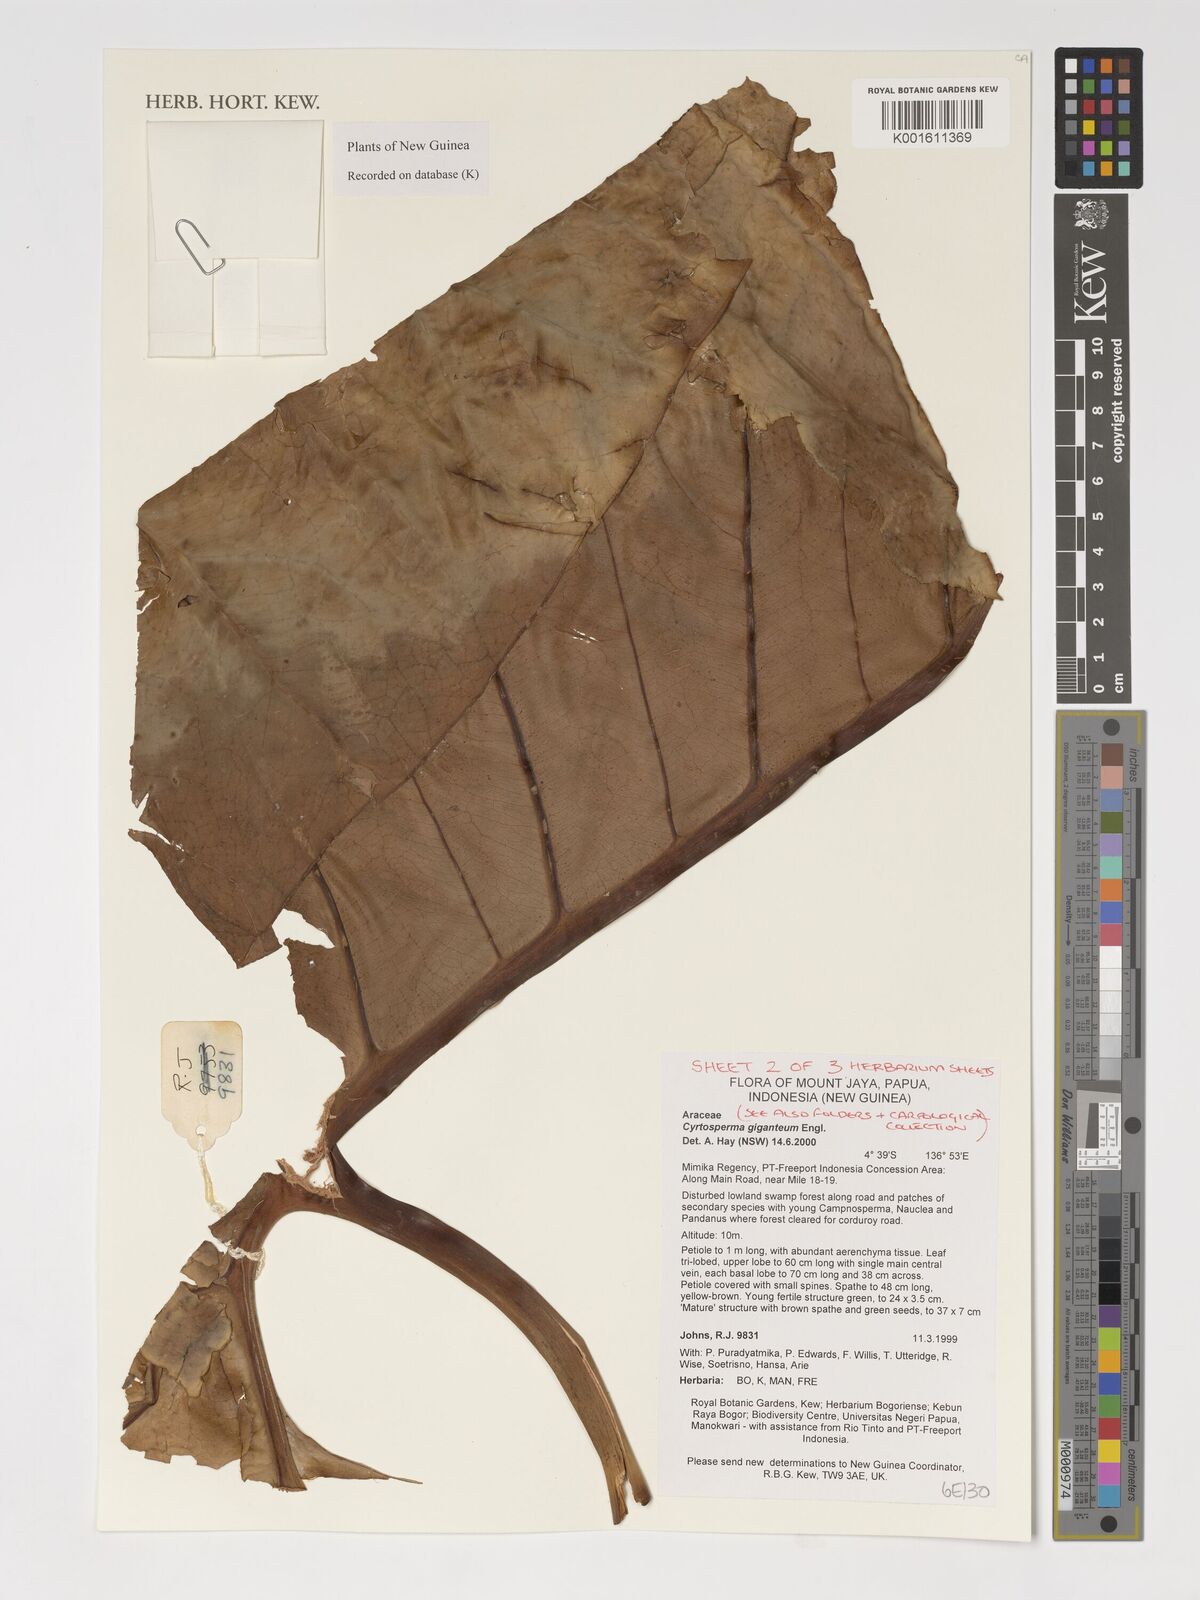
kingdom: Plantae
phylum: Tracheophyta
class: Liliopsida
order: Alismatales
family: Araceae
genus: Cyrtosperma
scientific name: Cyrtosperma giganteum
